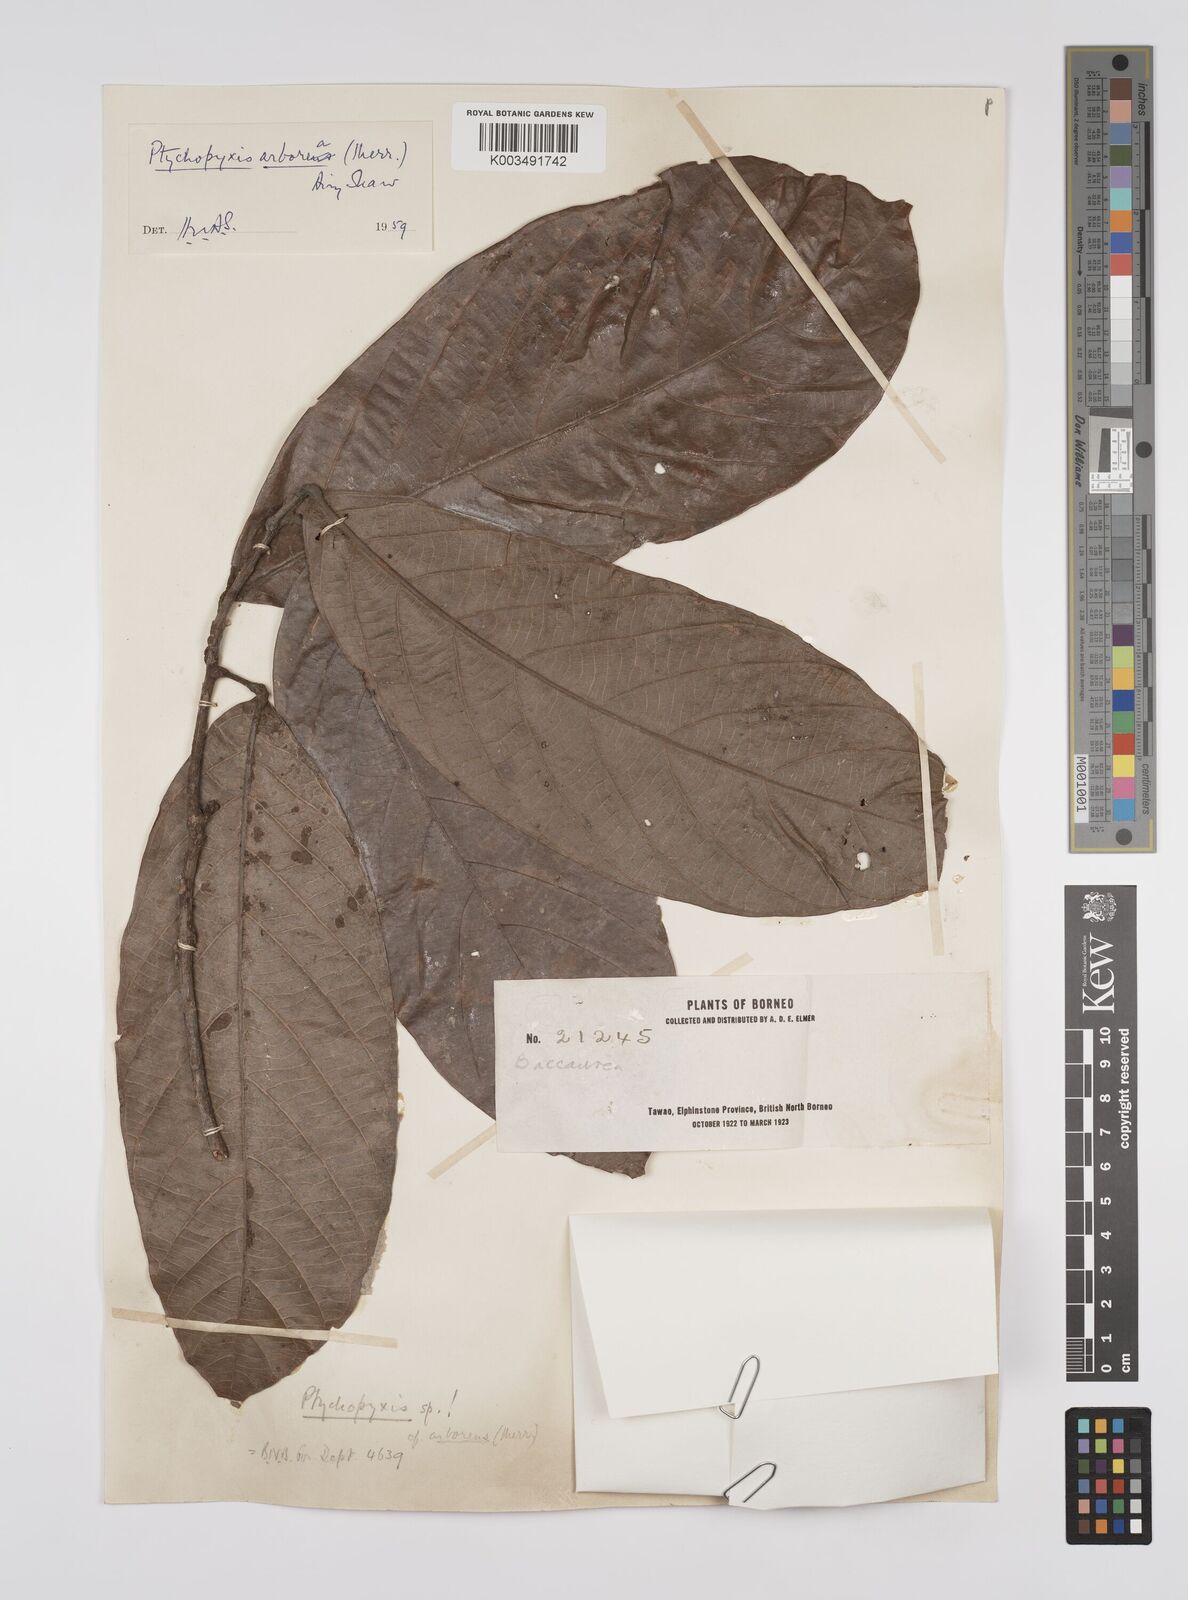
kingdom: Plantae
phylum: Tracheophyta
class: Magnoliopsida
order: Malpighiales
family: Euphorbiaceae
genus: Ptychopyxis
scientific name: Ptychopyxis arborea
